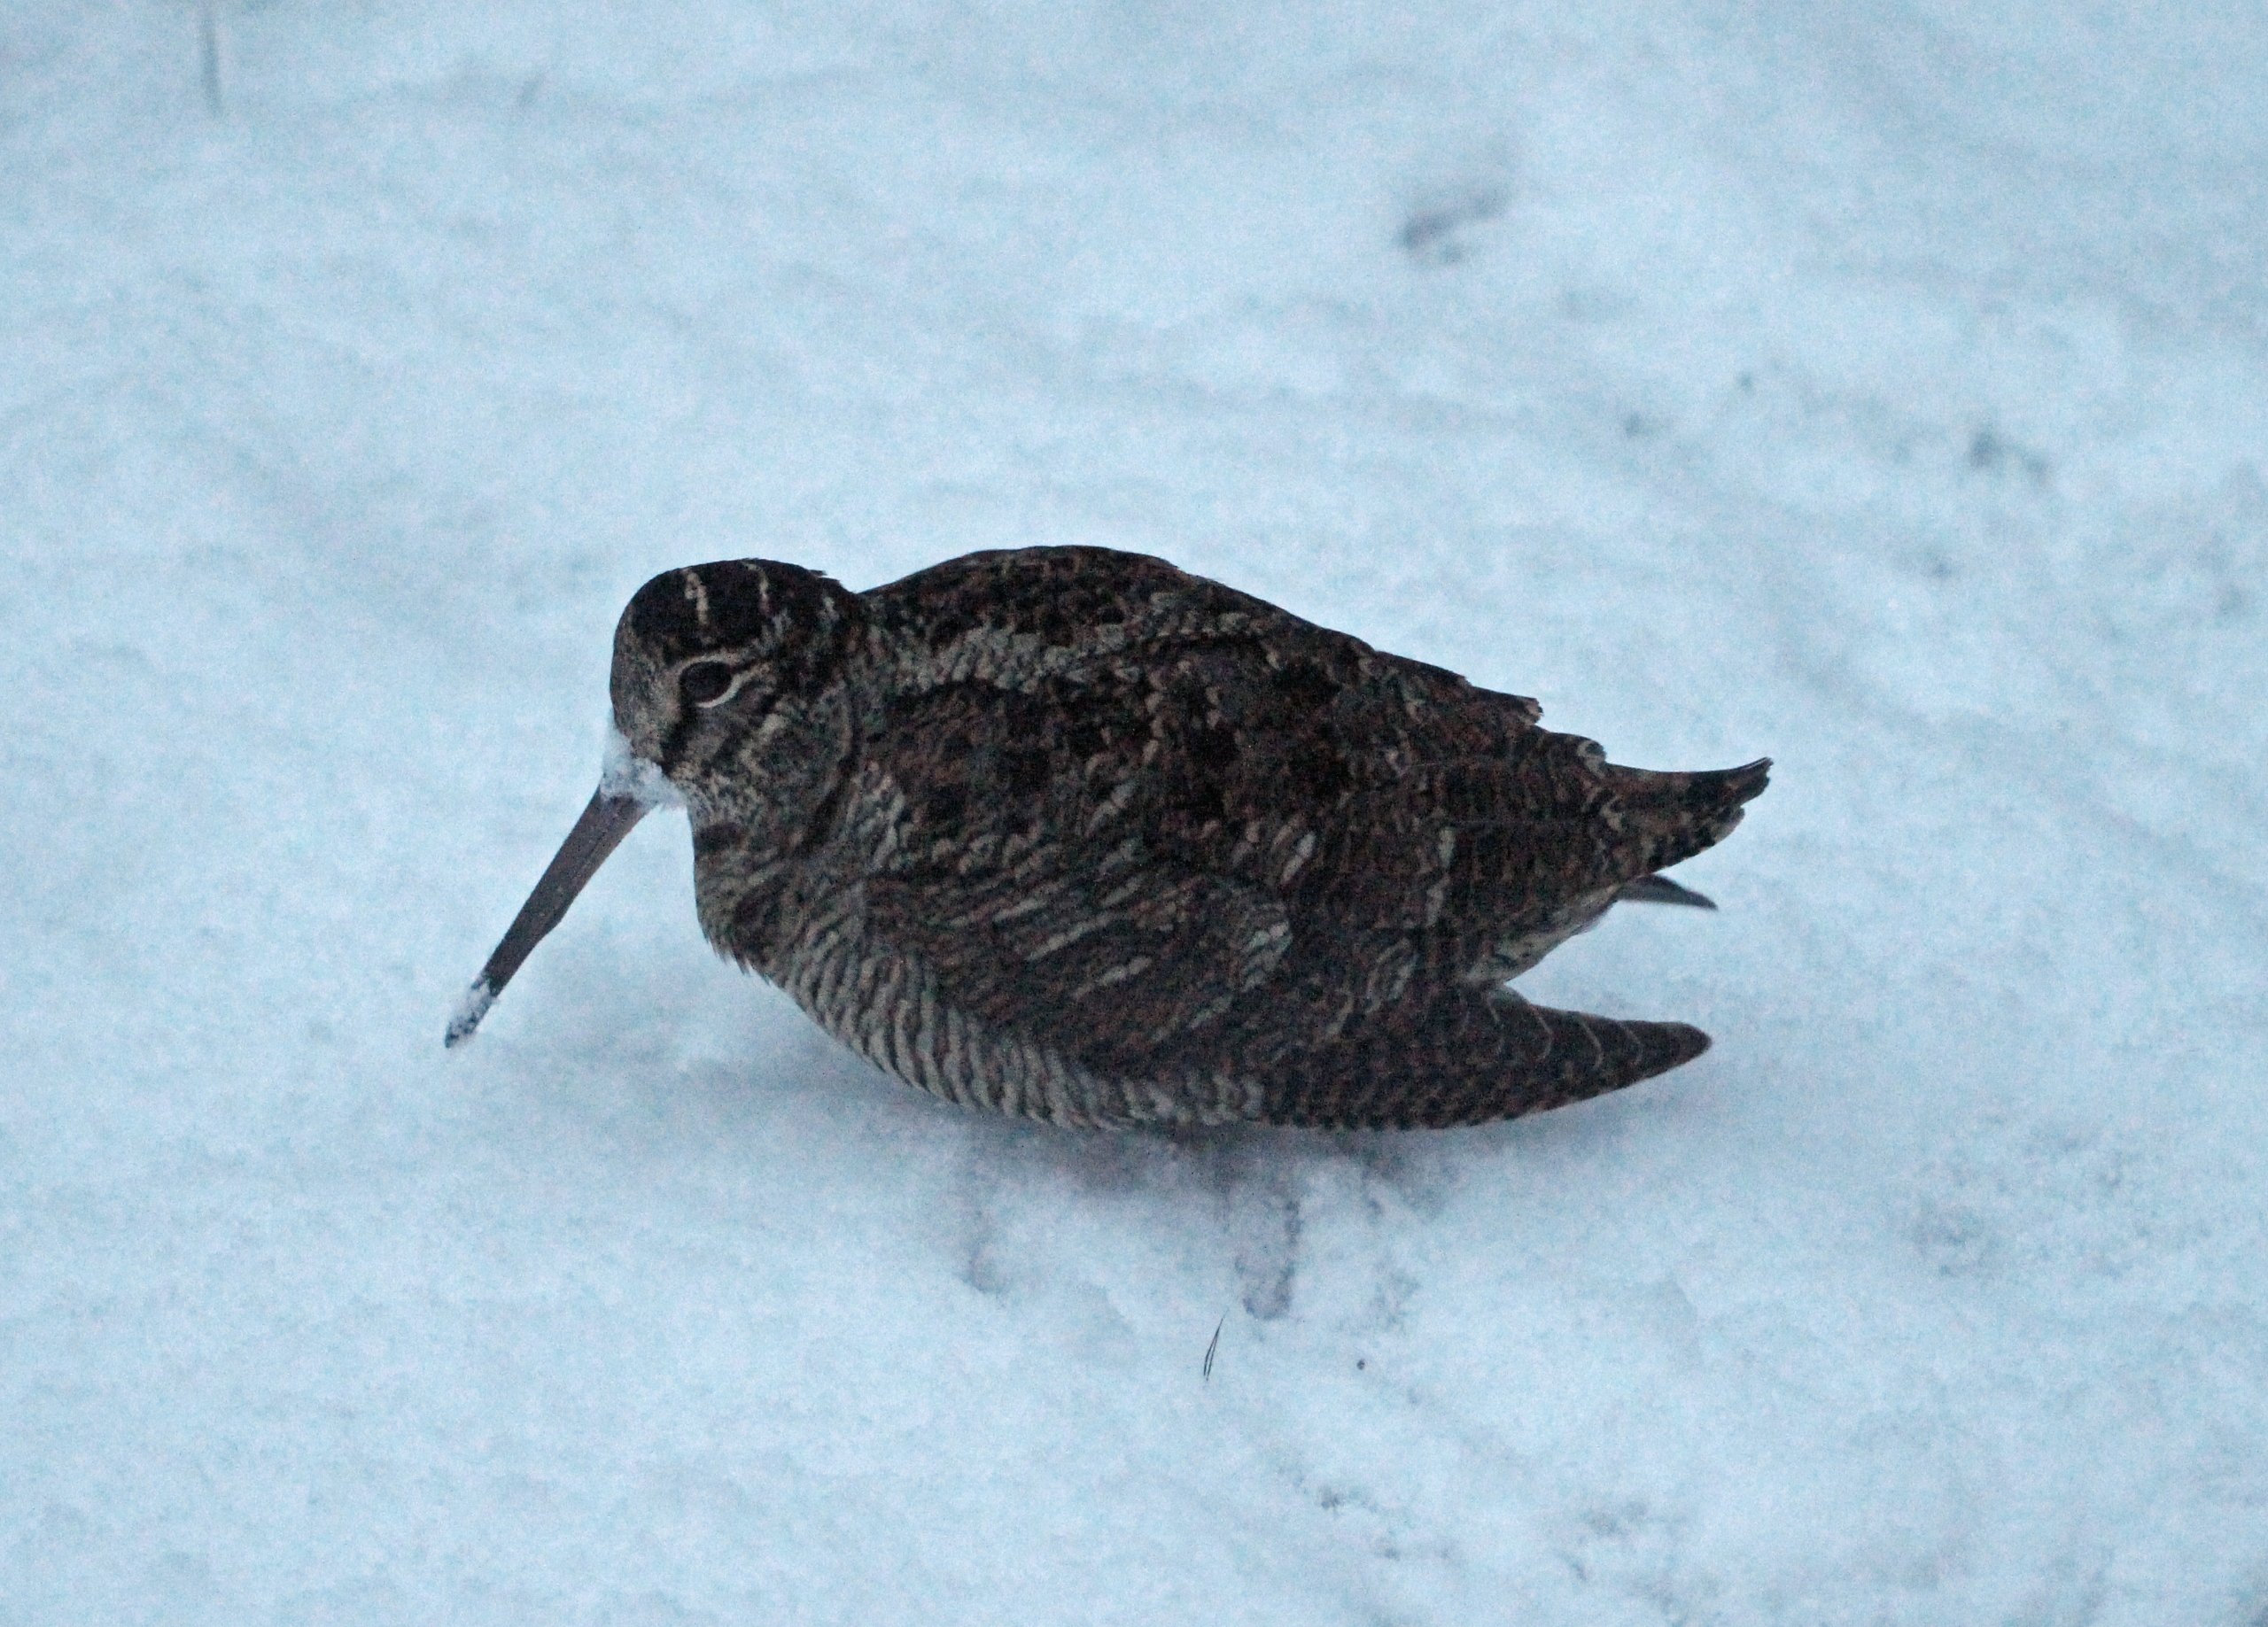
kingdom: Animalia
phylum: Chordata
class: Aves
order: Charadriiformes
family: Scolopacidae
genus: Scolopax
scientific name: Scolopax rusticola
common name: Skovsneppe
